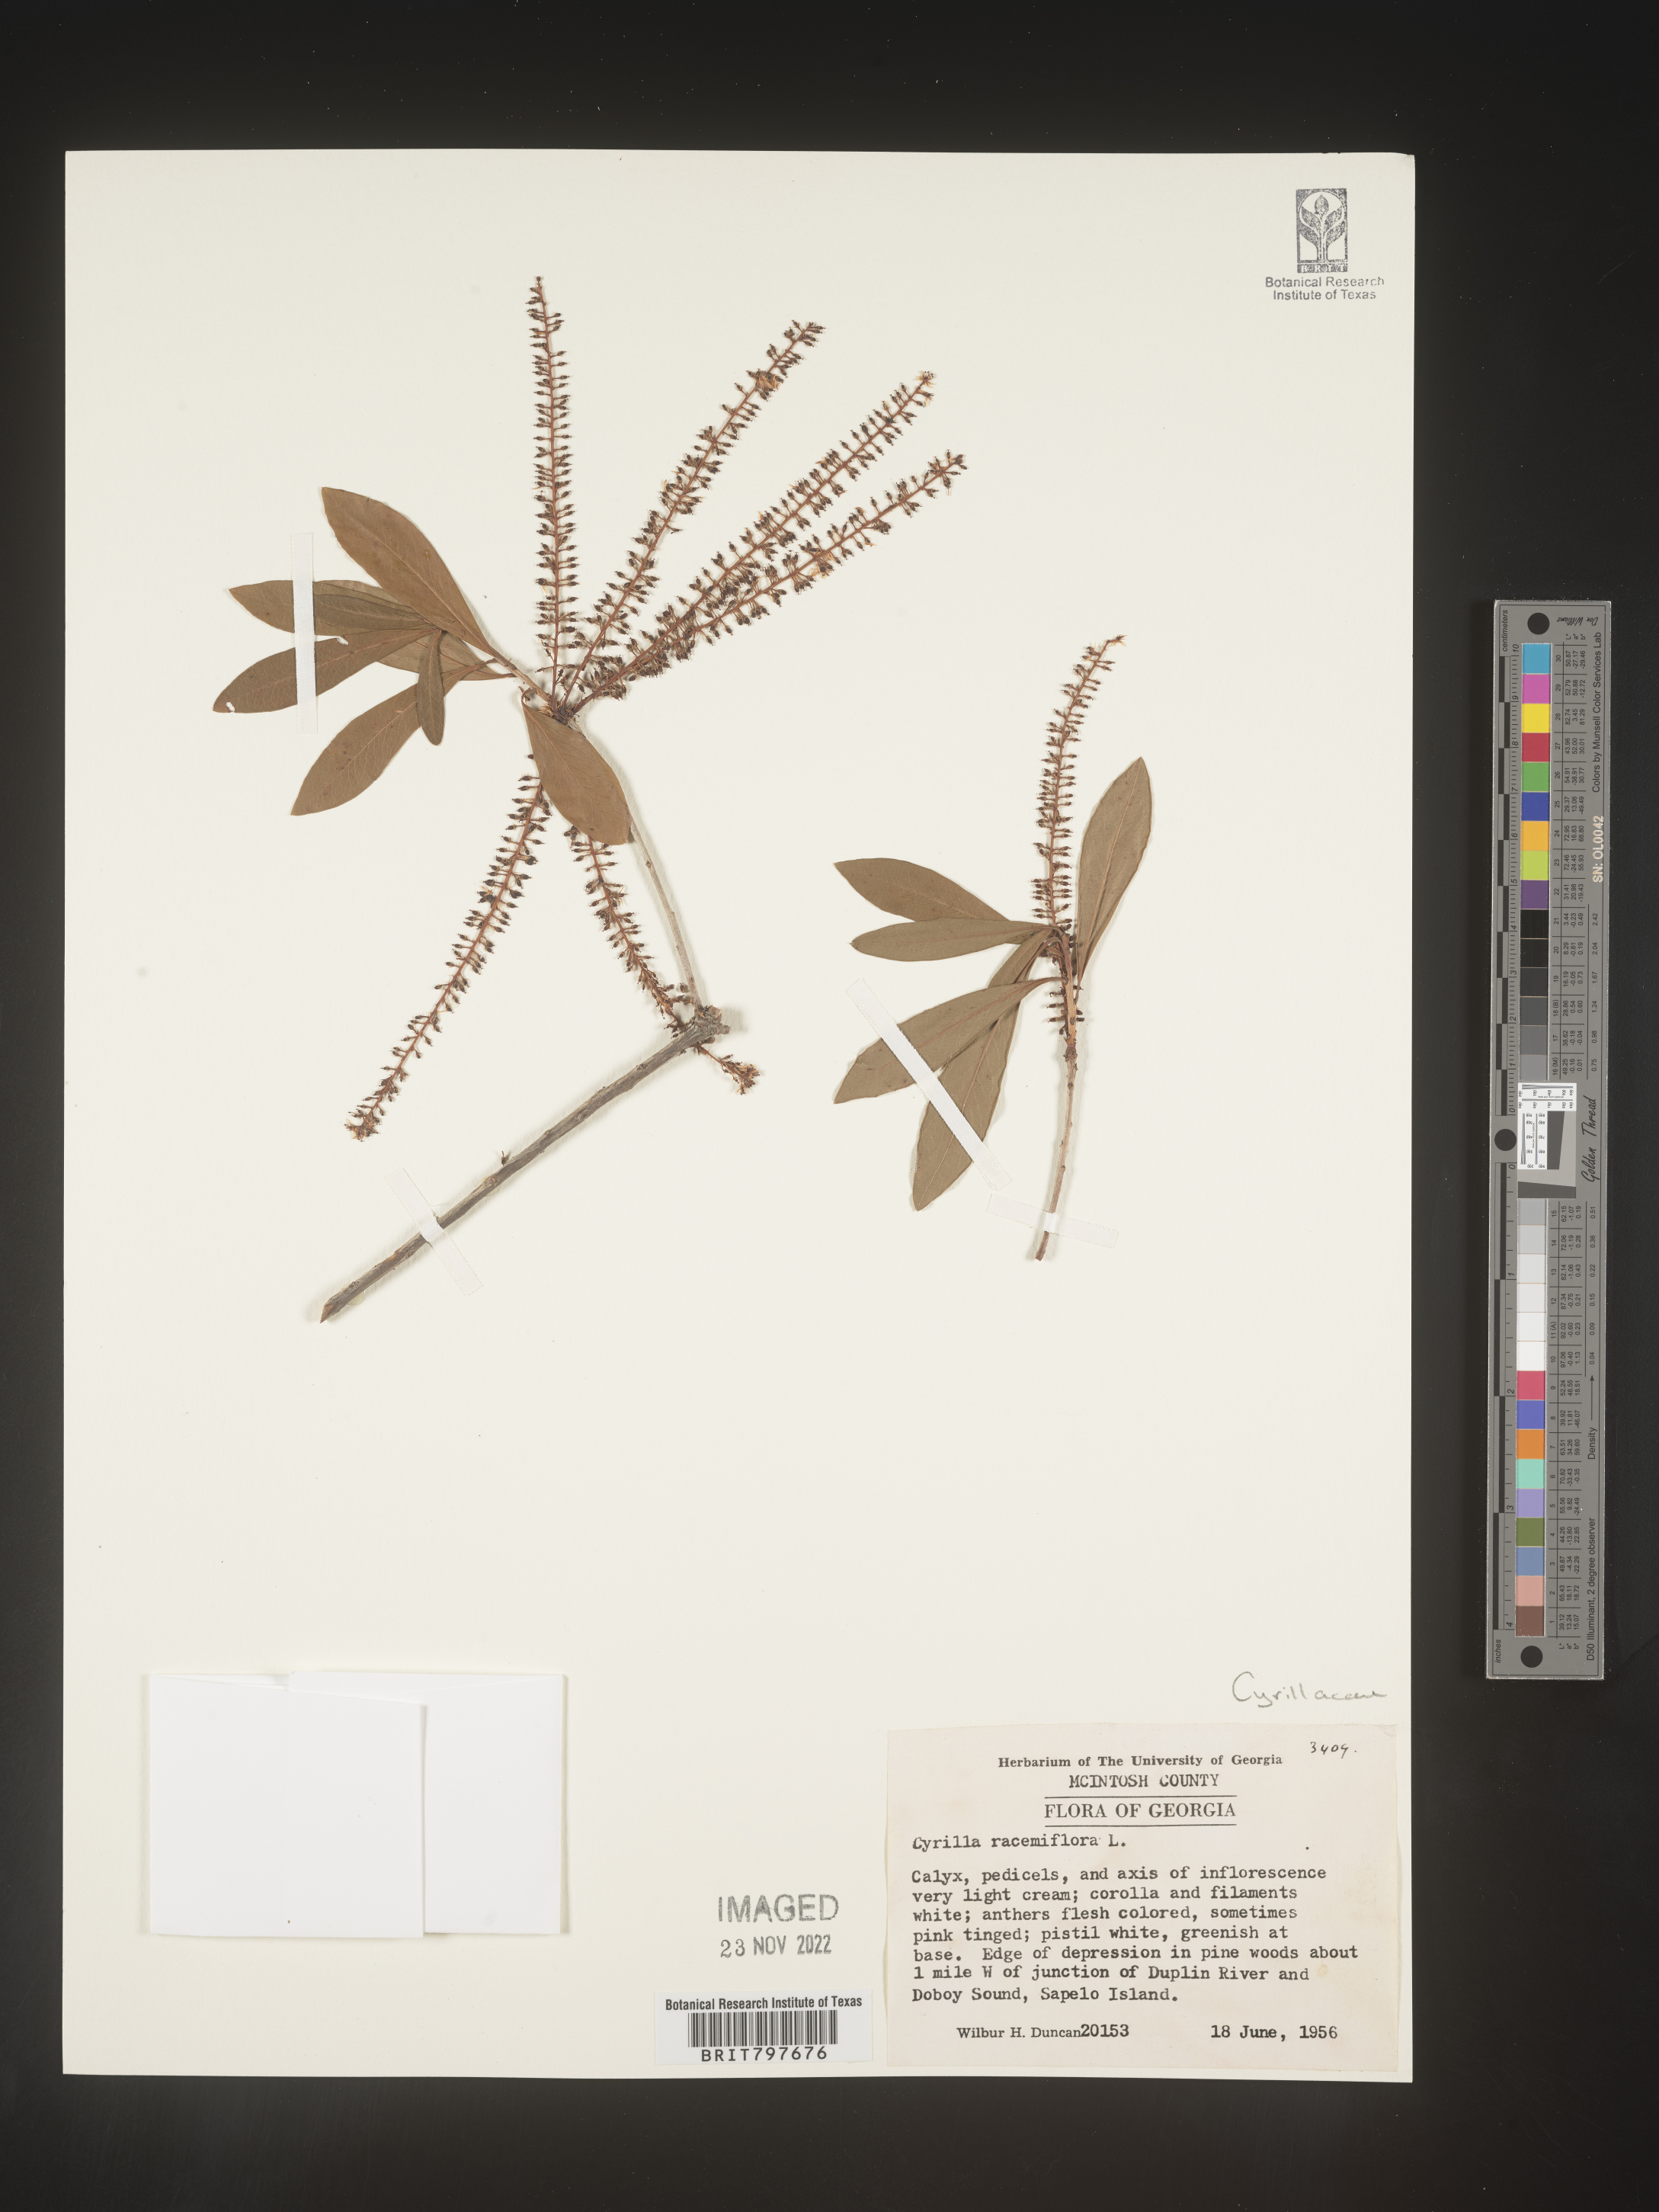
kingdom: Plantae
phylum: Tracheophyta
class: Magnoliopsida
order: Ericales
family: Cyrillaceae
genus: Cyrilla
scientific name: Cyrilla racemiflora
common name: Black titi
